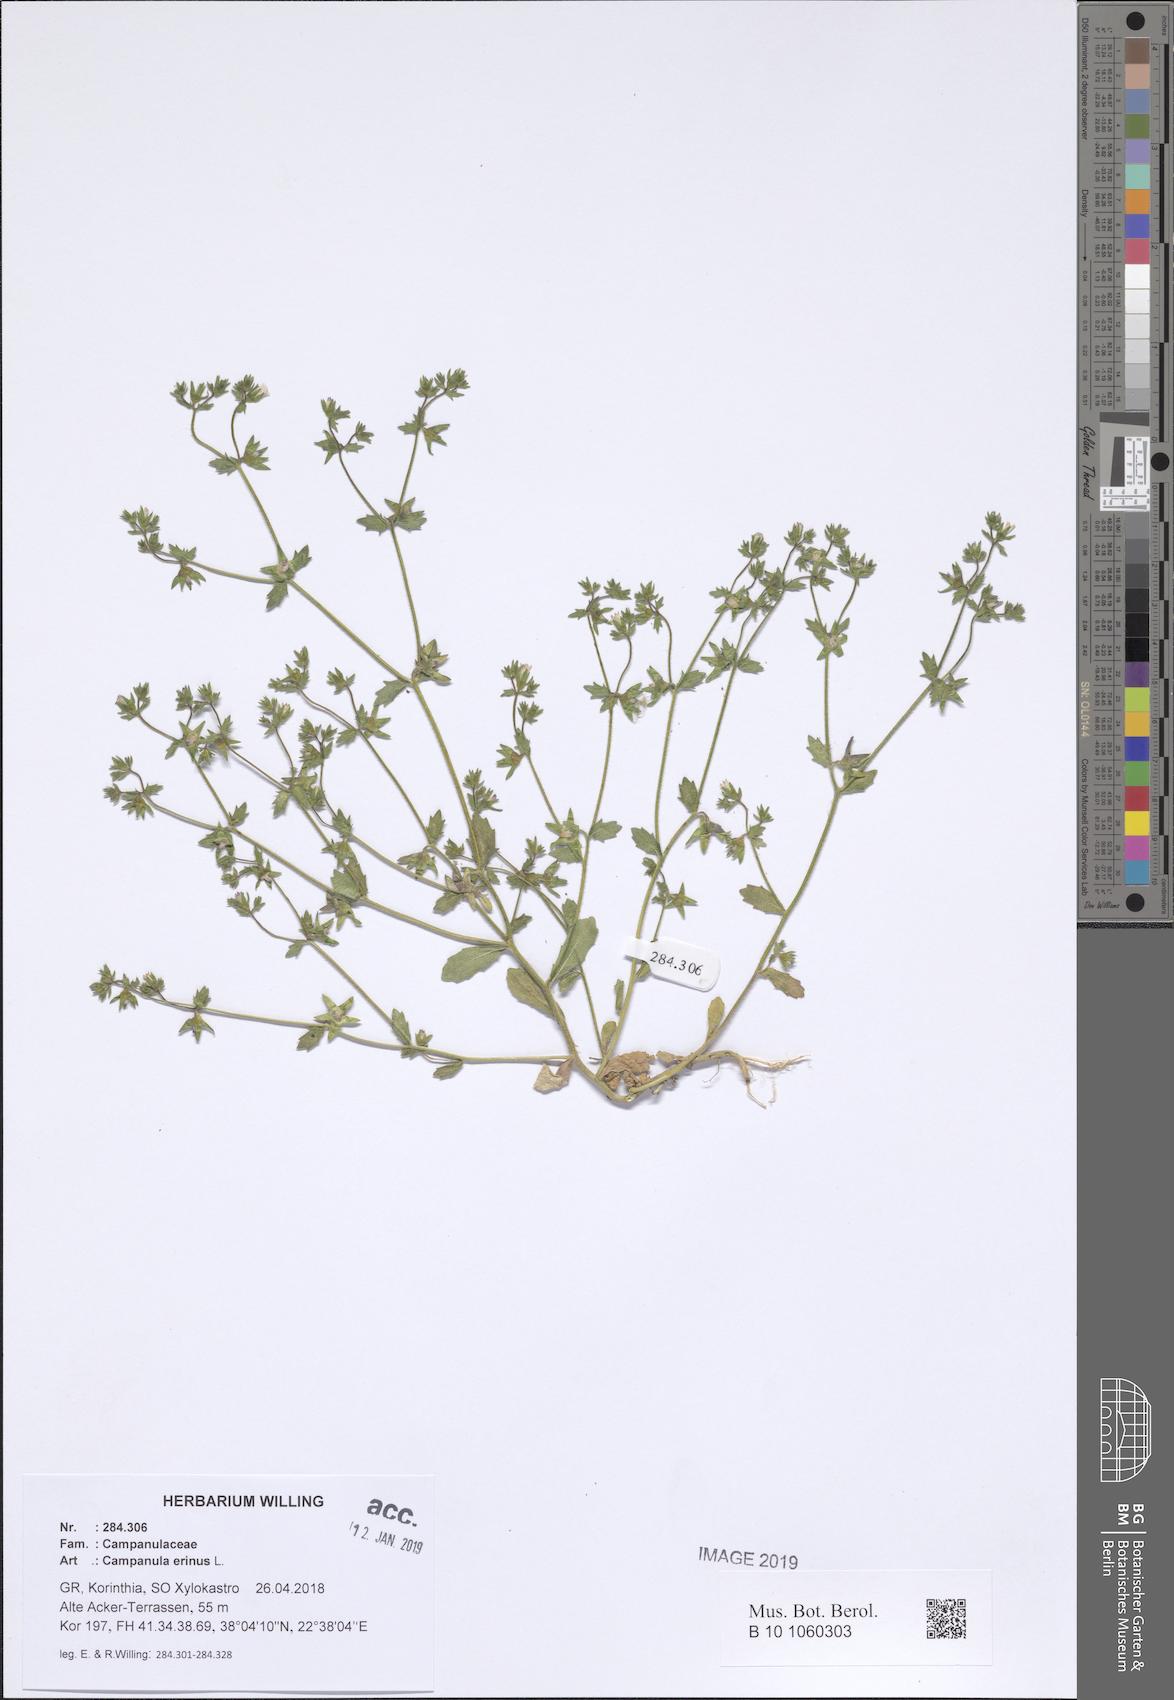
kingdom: Plantae
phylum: Tracheophyta
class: Magnoliopsida
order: Asterales
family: Campanulaceae
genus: Campanula
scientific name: Campanula erinus
